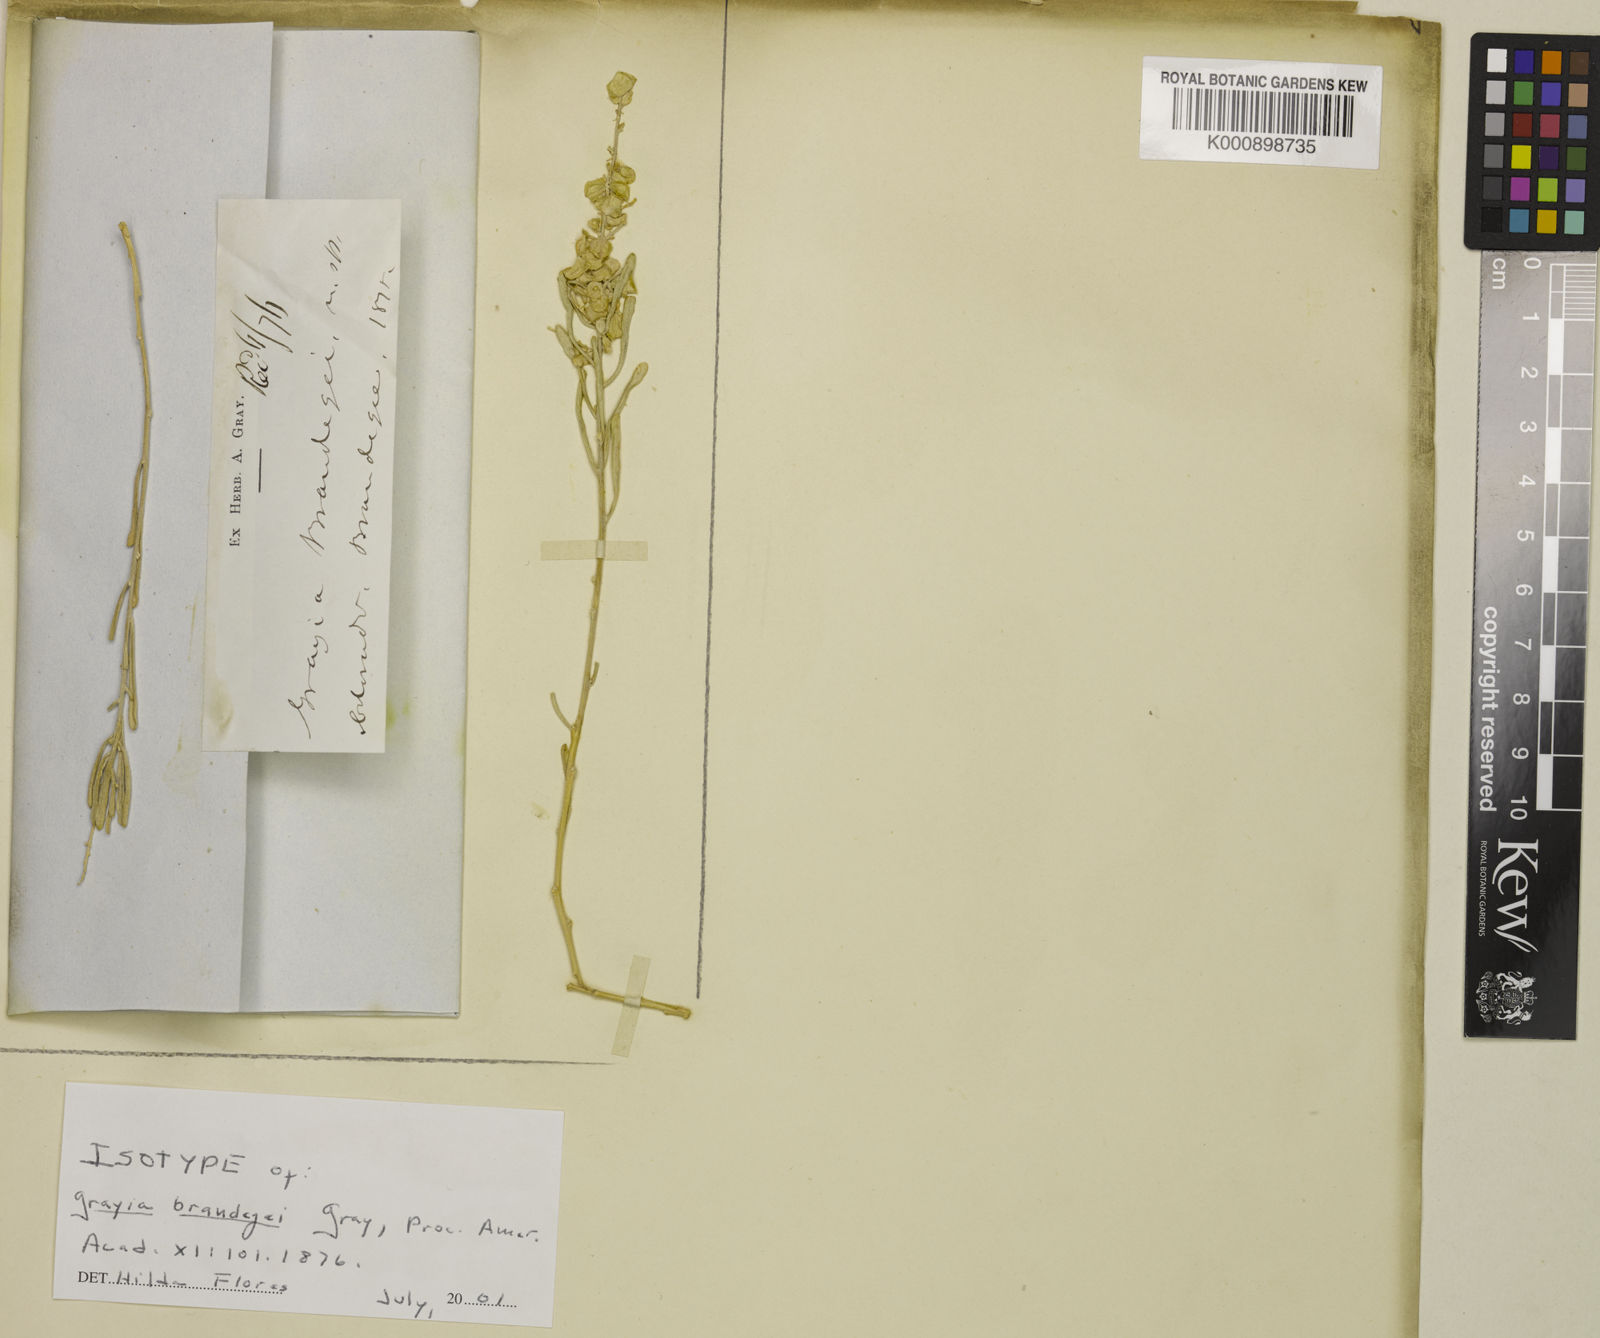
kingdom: Plantae
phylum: Tracheophyta
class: Magnoliopsida
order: Caryophyllales
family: Amaranthaceae
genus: Grayia
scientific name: Grayia brandegeei
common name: Brandegee's siltbush
